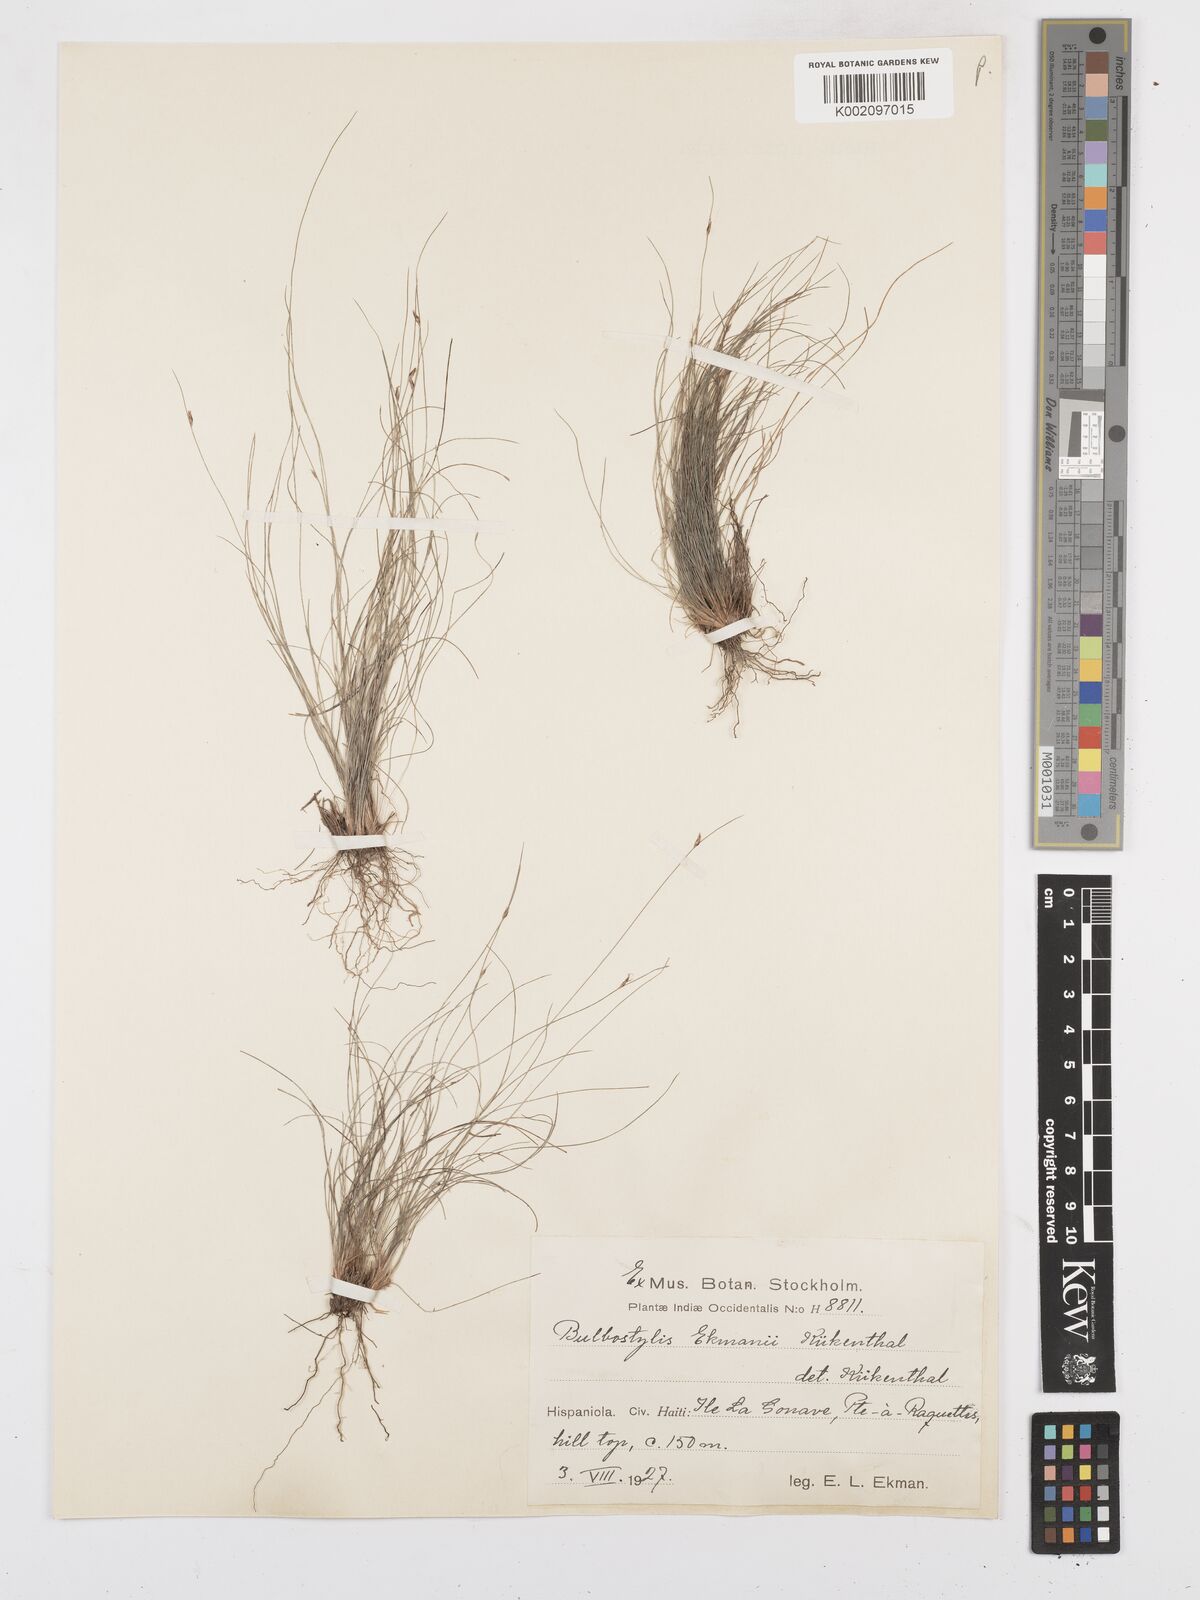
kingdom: Plantae
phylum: Tracheophyta
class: Liliopsida
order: Poales
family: Cyperaceae
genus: Bulbostylis
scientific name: Bulbostylis pauciflora
